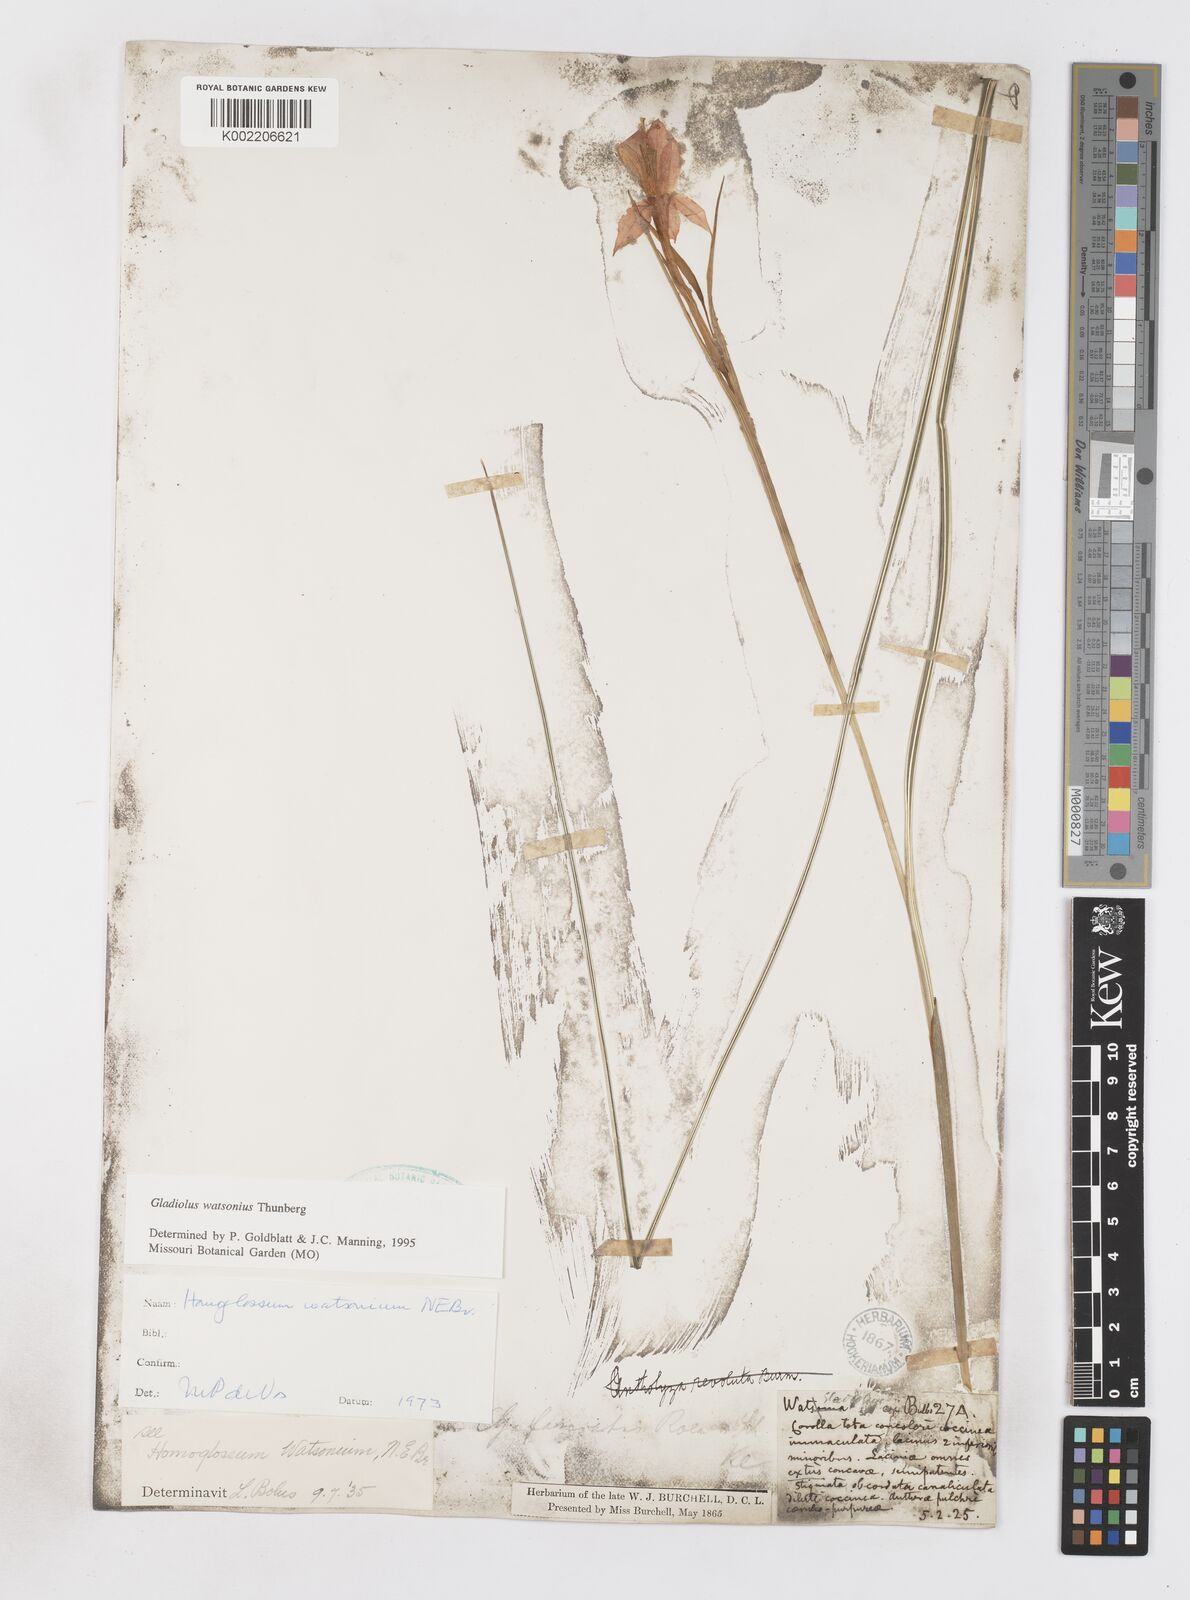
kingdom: Plantae
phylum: Tracheophyta
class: Liliopsida
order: Asparagales
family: Iridaceae
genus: Gladiolus
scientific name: Gladiolus watsonius
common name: Red afrikaner
